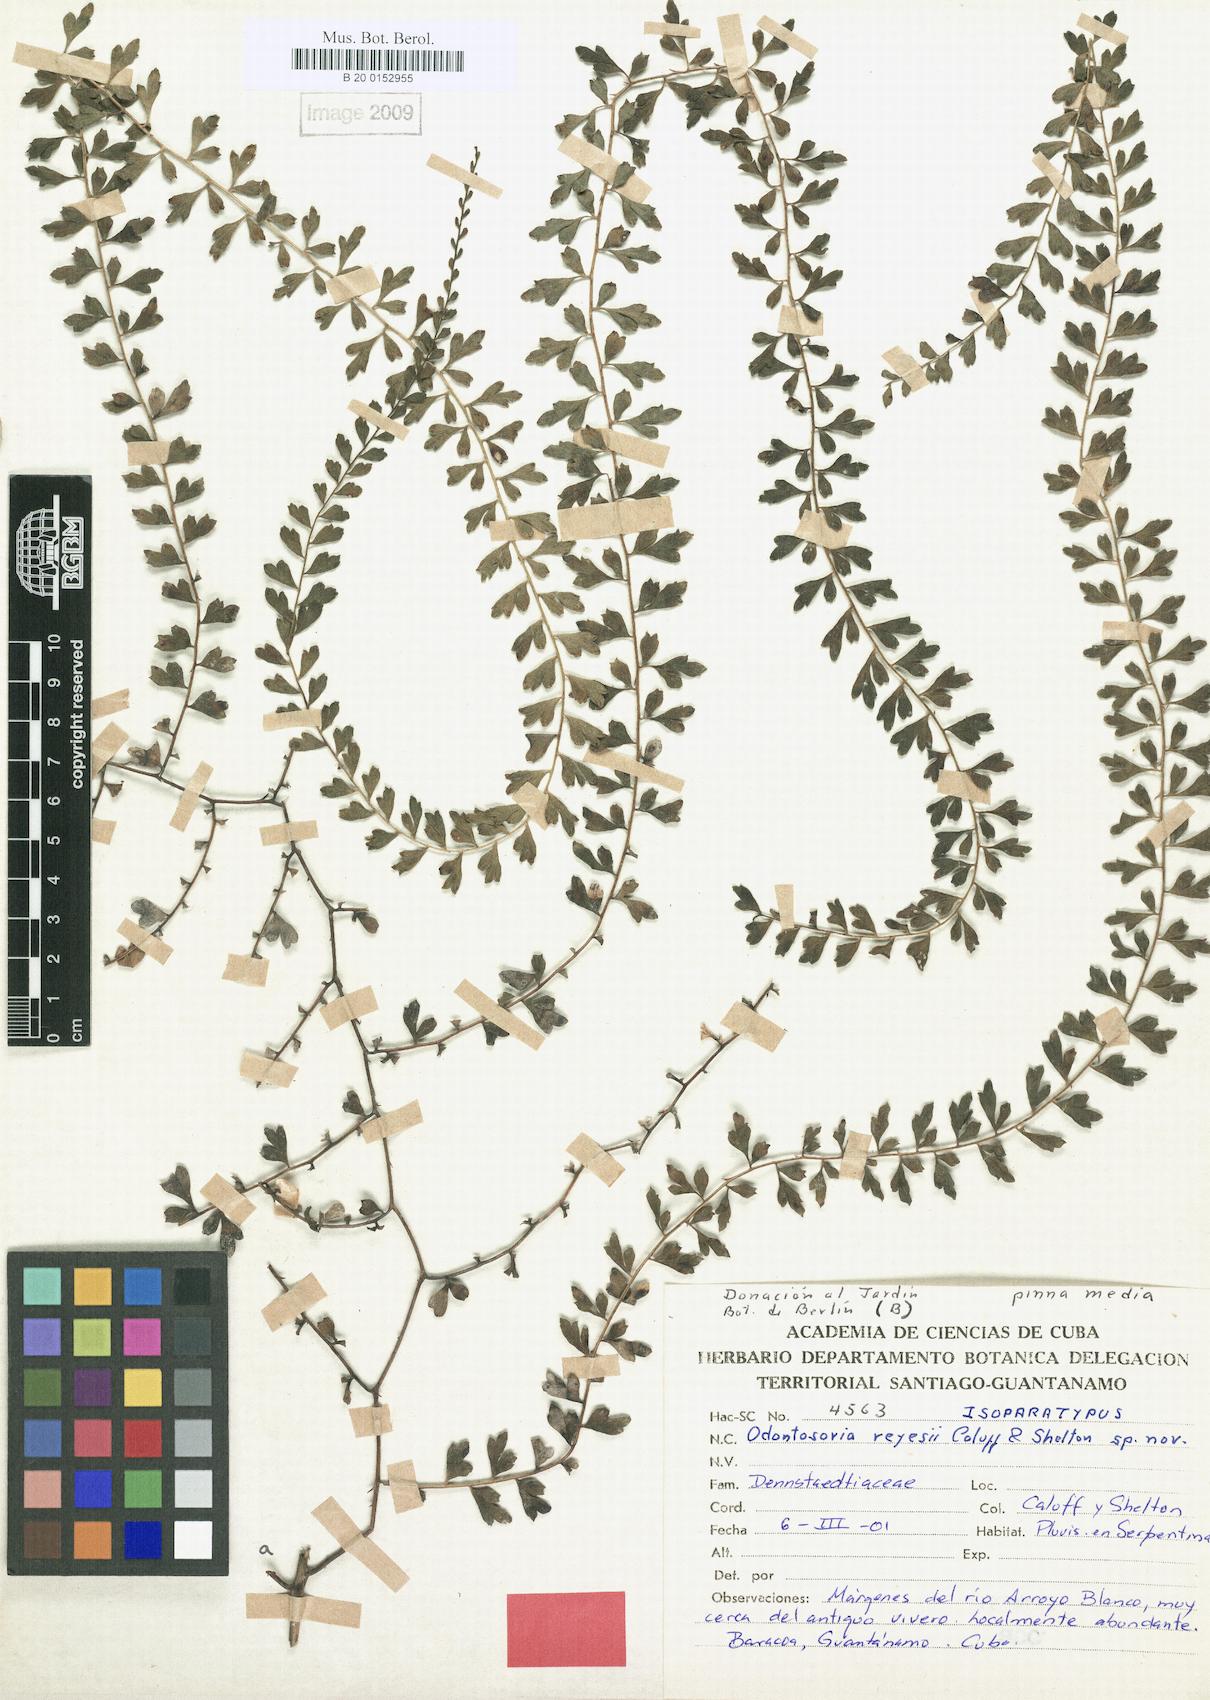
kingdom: Plantae
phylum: Tracheophyta
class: Polypodiopsida
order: Polypodiales
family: Lindsaeaceae
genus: Odontosoria
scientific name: Odontosoria reyesii
